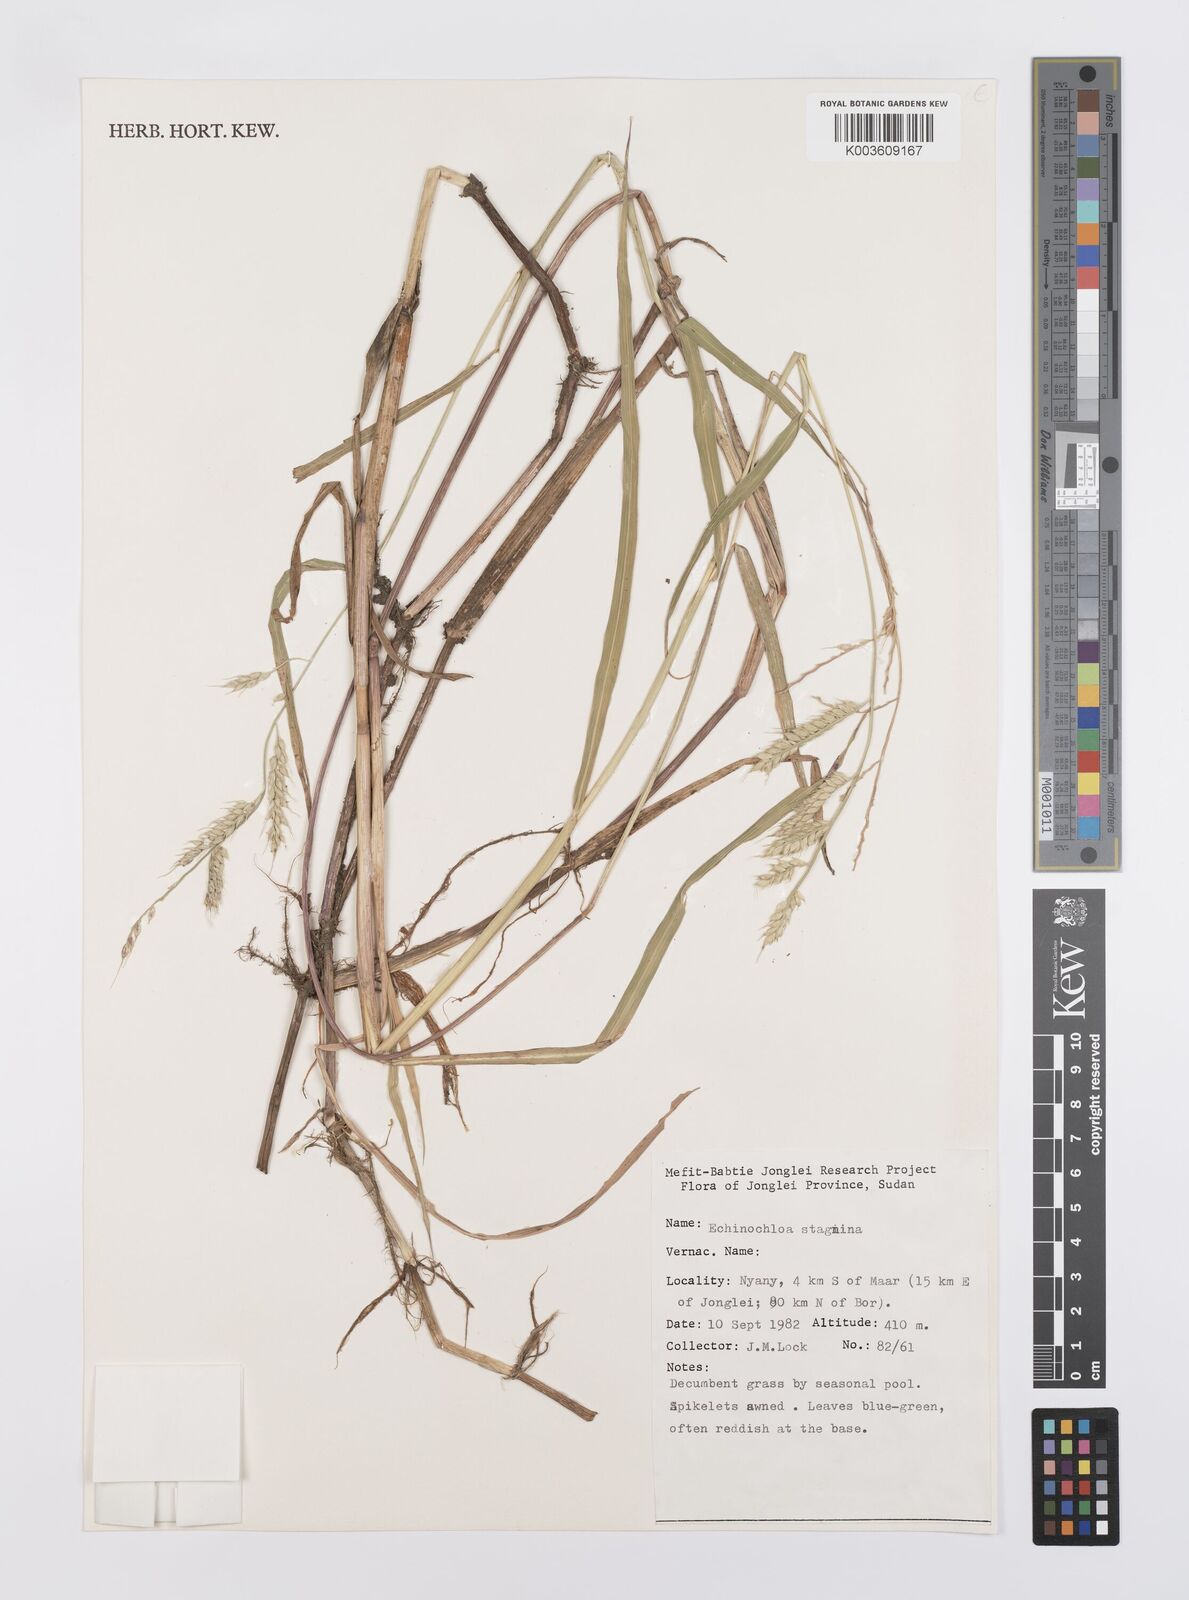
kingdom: Plantae
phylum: Tracheophyta
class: Liliopsida
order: Poales
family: Poaceae
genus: Echinochloa
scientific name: Echinochloa stagnina
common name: Burgu grass
